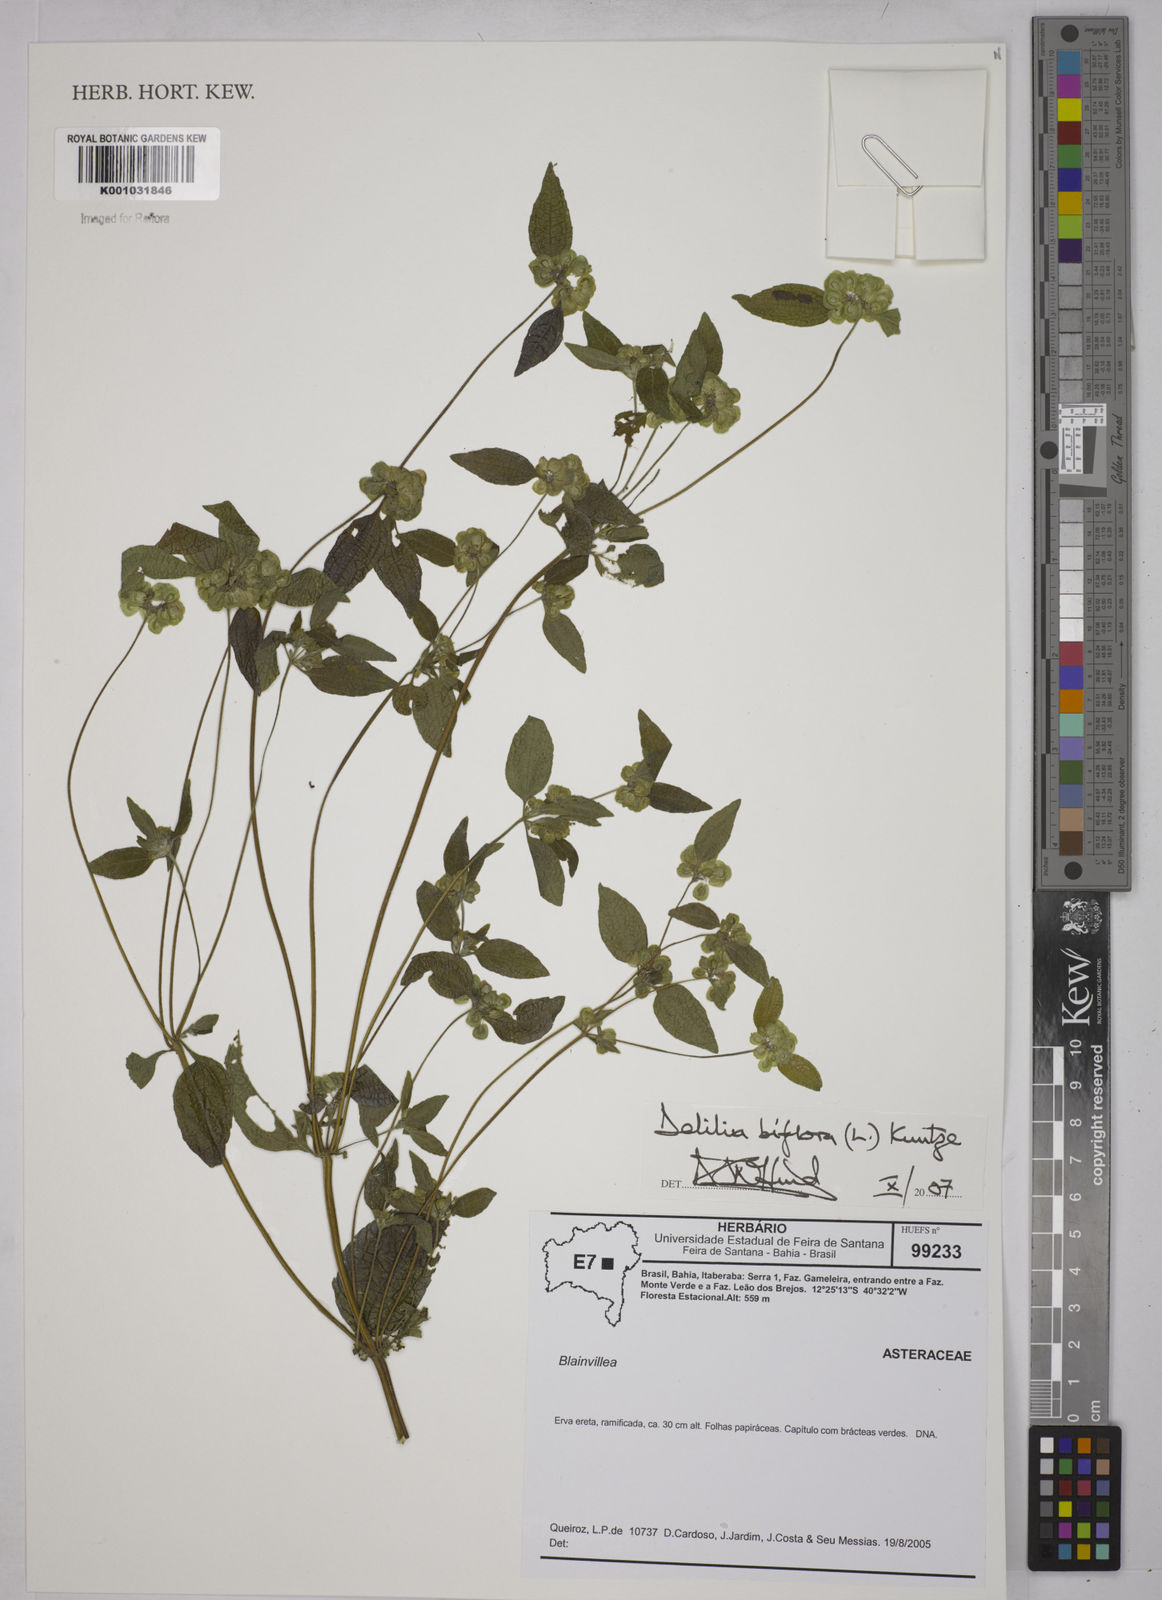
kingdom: Plantae
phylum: Tracheophyta
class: Magnoliopsida
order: Asterales
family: Asteraceae
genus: Delilia
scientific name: Delilia biflora
